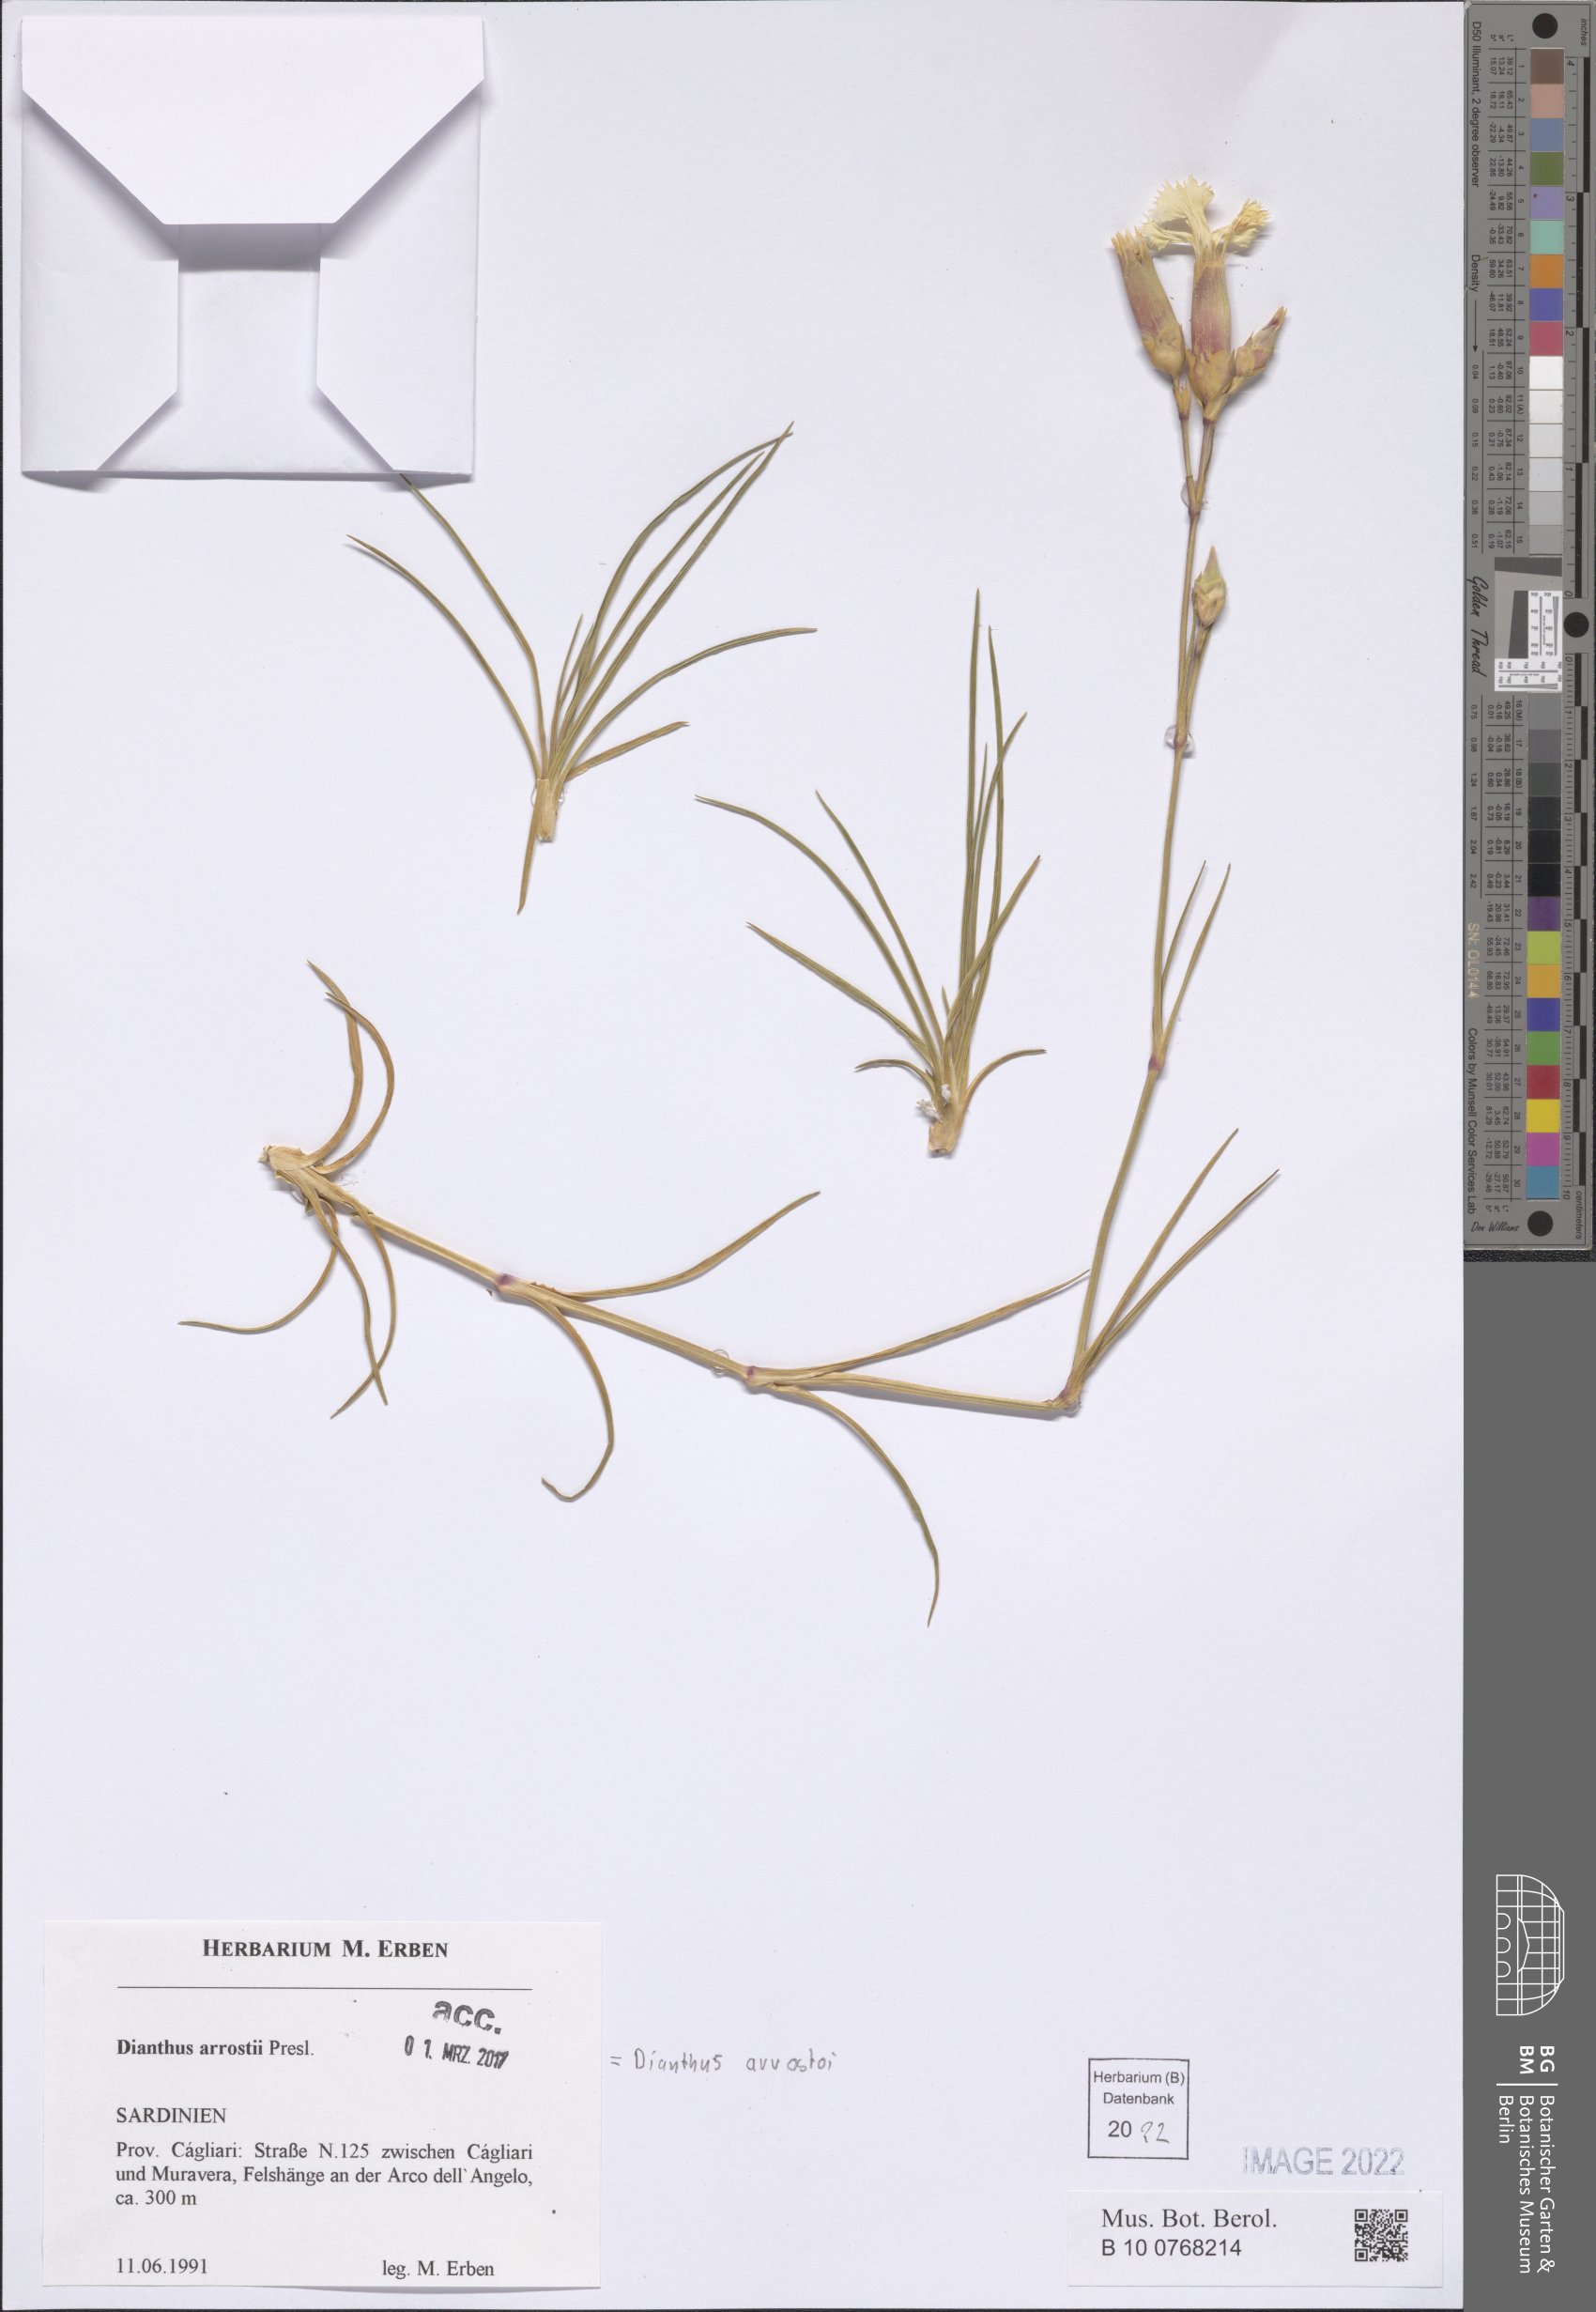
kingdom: Plantae
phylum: Tracheophyta
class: Magnoliopsida
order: Caryophyllales
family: Caryophyllaceae
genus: Dianthus
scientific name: Dianthus arrostoi
